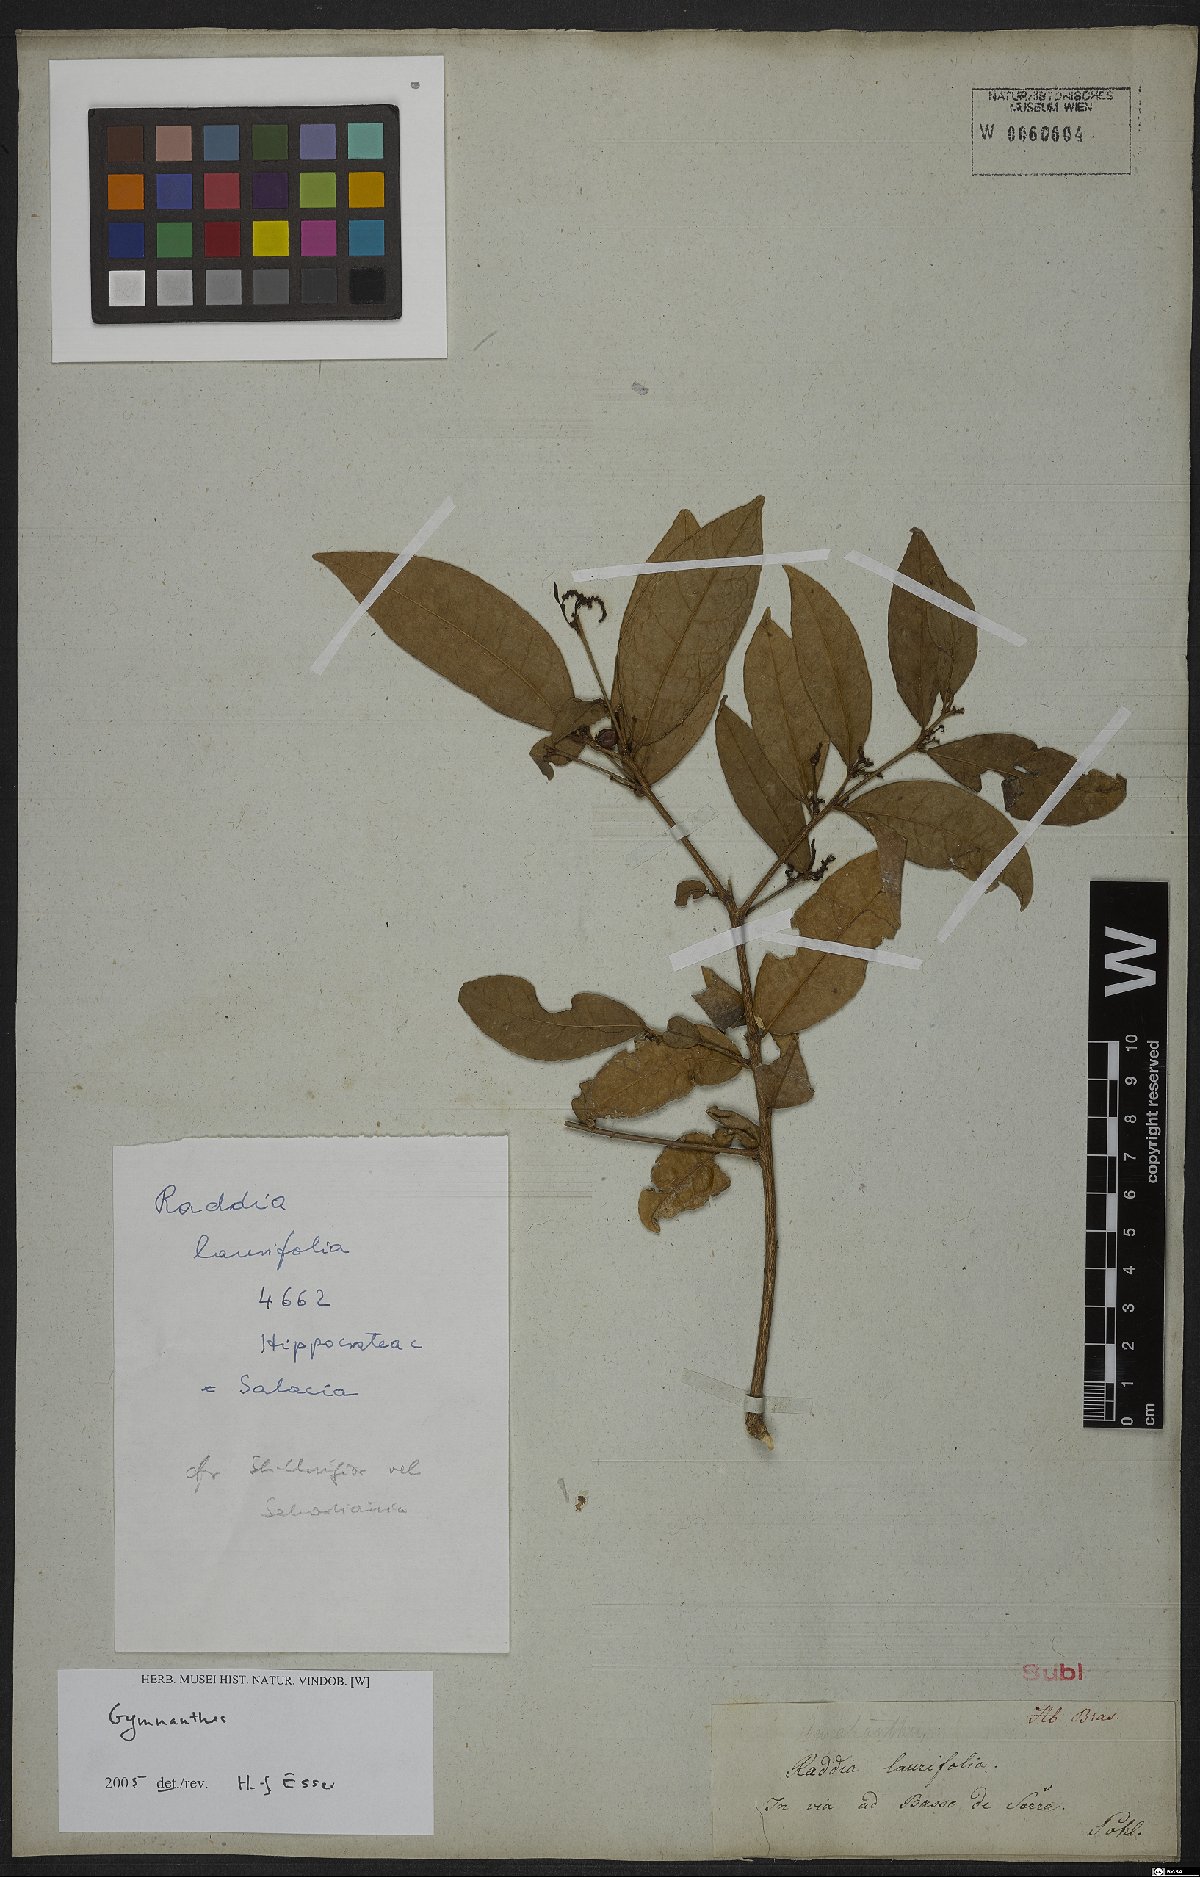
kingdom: Plantae
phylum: Tracheophyta
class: Magnoliopsida
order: Malpighiales
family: Euphorbiaceae
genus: Gymnanthes
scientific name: Gymnanthes
